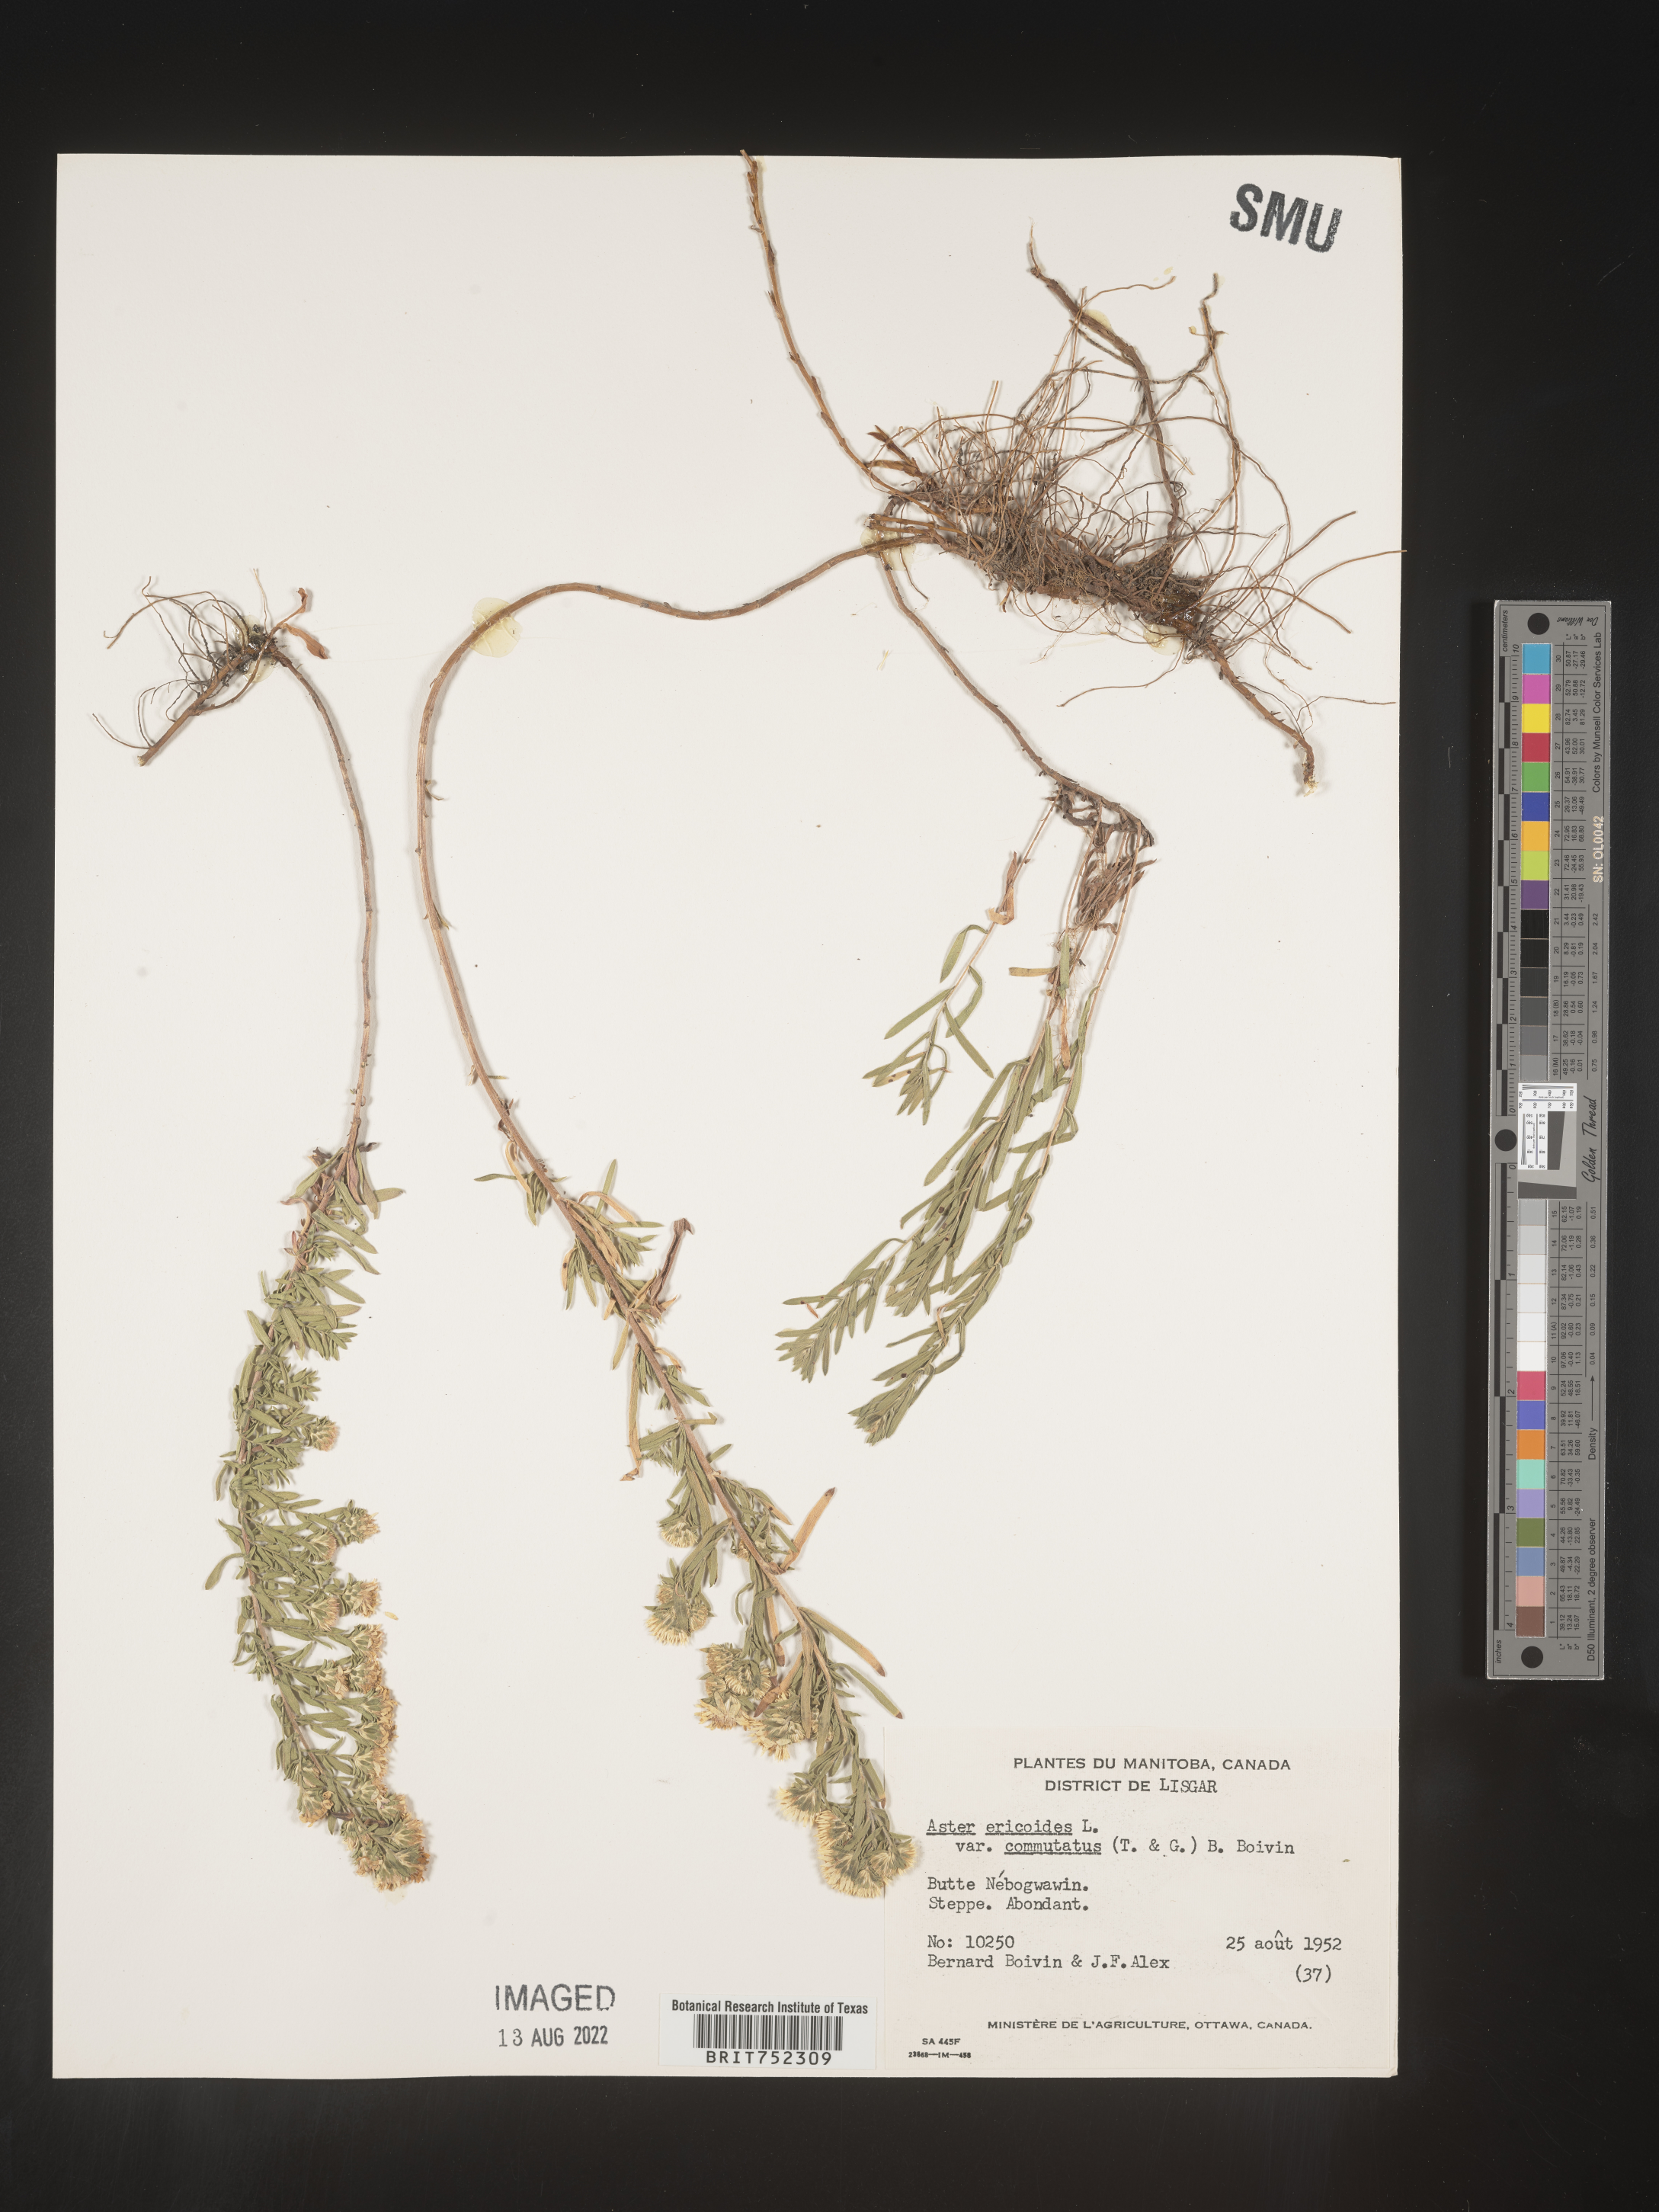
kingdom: Plantae
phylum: Tracheophyta
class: Magnoliopsida
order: Asterales
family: Asteraceae
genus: Symphyotrichum
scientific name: Symphyotrichum falcatum
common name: Creeping white prairie aster
